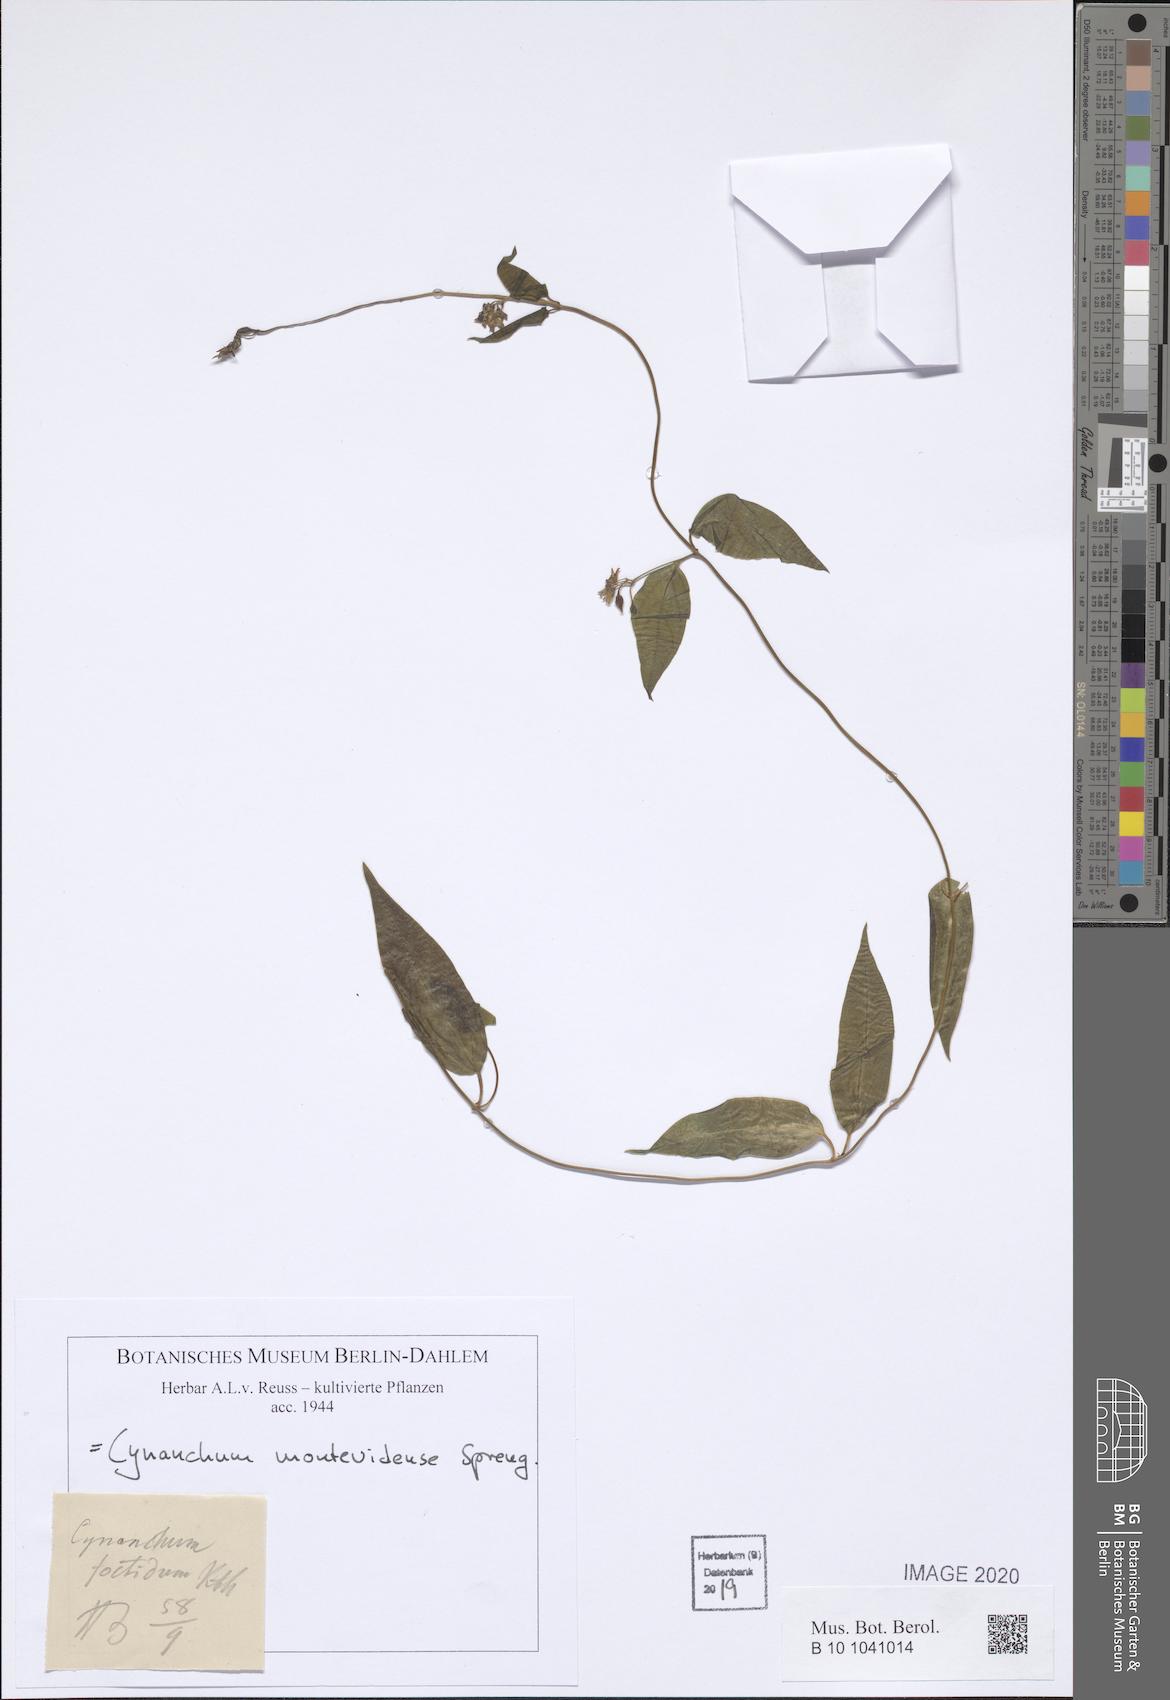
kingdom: Plantae
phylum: Tracheophyta
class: Magnoliopsida
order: Gentianales
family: Apocynaceae
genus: Cynanchum
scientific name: Cynanchum montevidense
